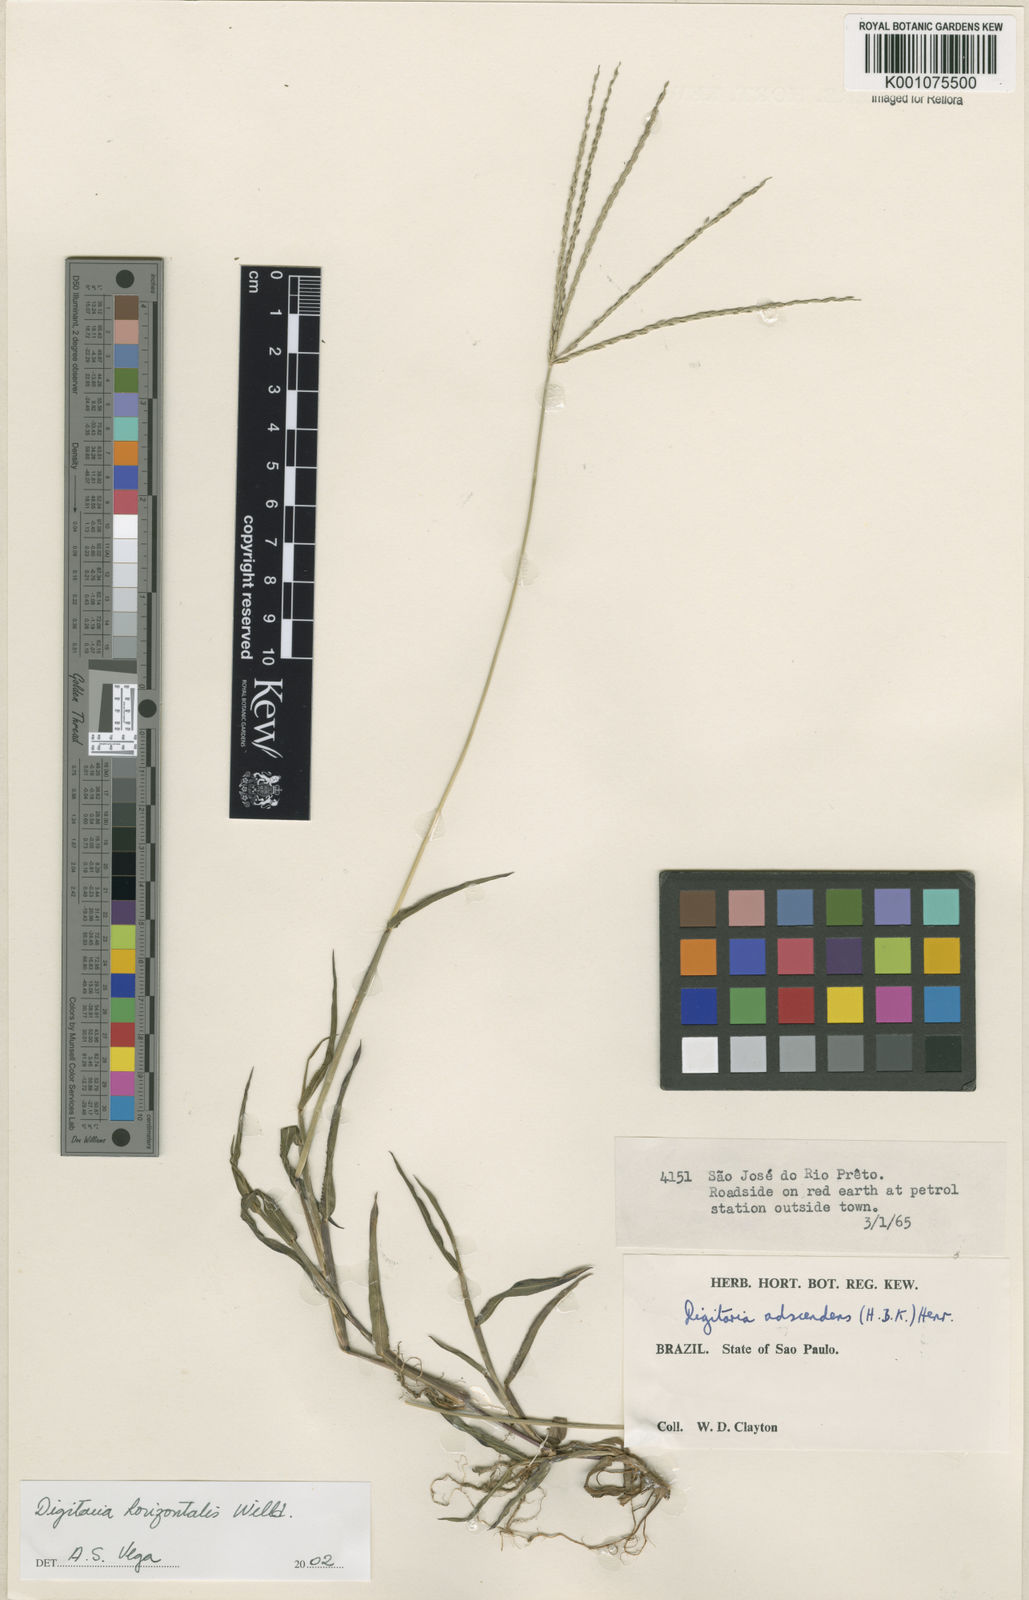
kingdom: Plantae
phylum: Tracheophyta
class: Liliopsida
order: Poales
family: Poaceae
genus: Digitaria
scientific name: Digitaria horizontalis
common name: Jamaican crabgrass
